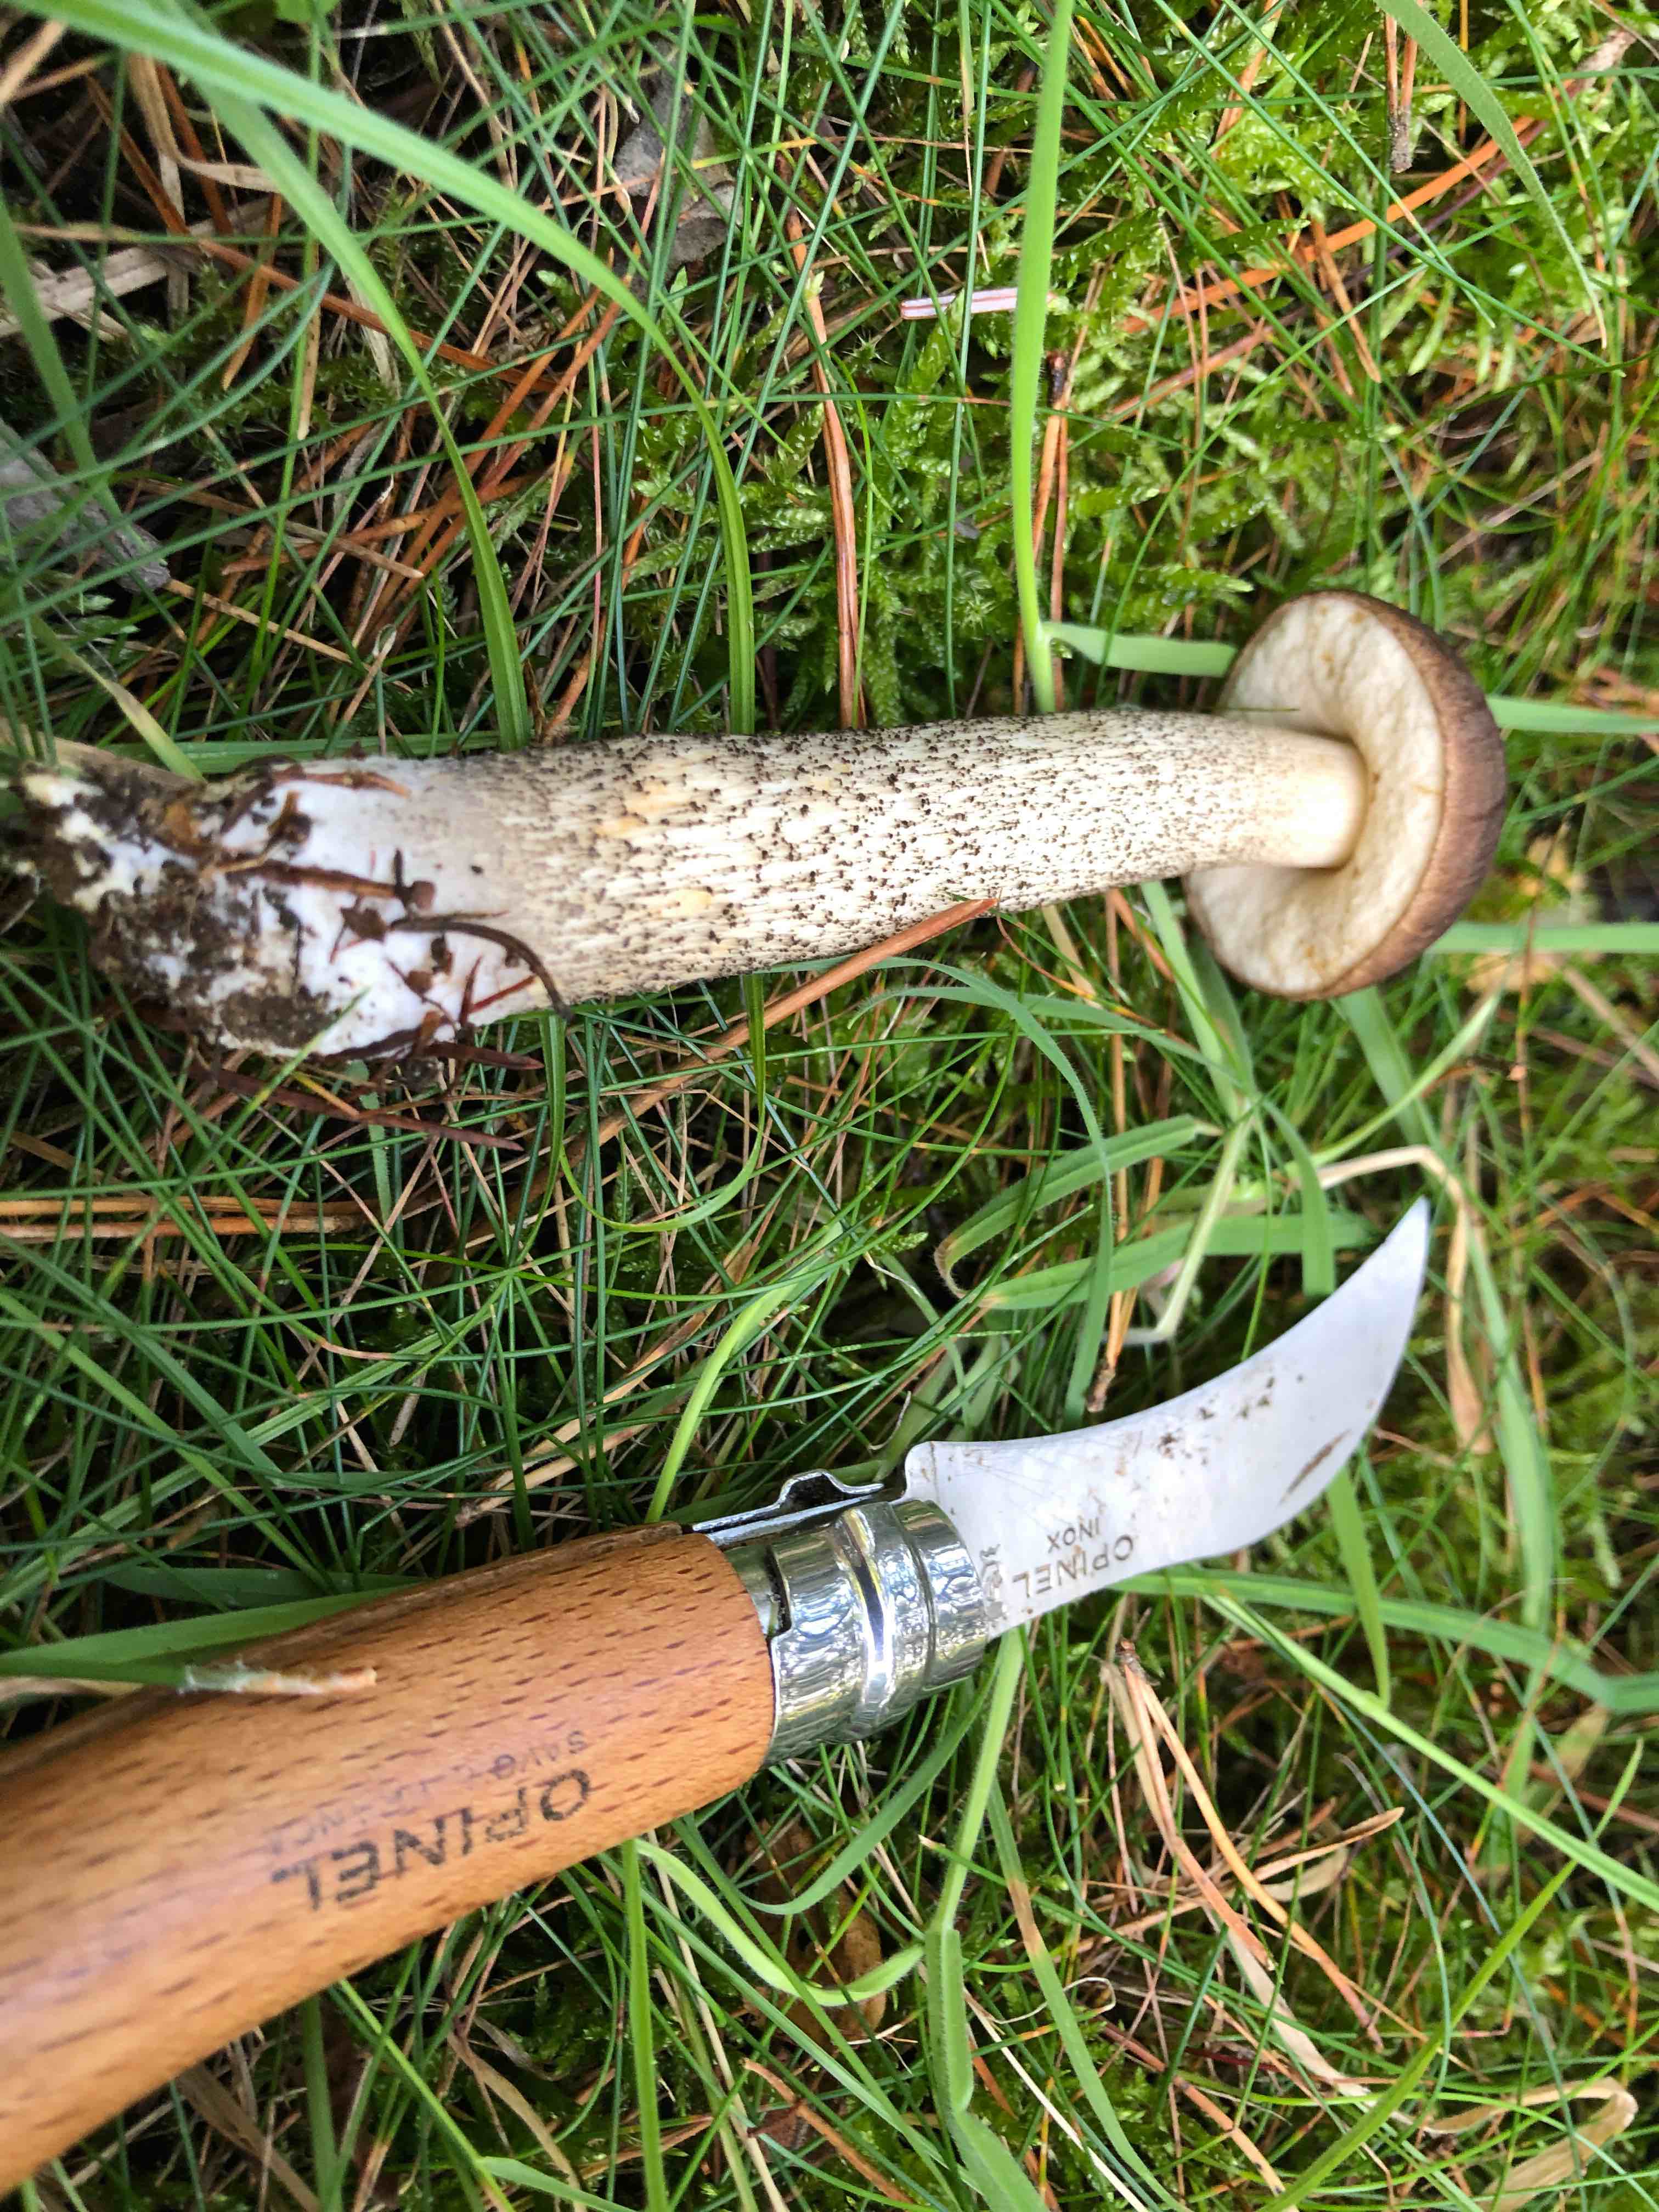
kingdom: Fungi
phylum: Basidiomycota
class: Agaricomycetes
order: Boletales
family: Boletaceae
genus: Leccinum
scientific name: Leccinum scabrum
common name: brun skælrørhat
